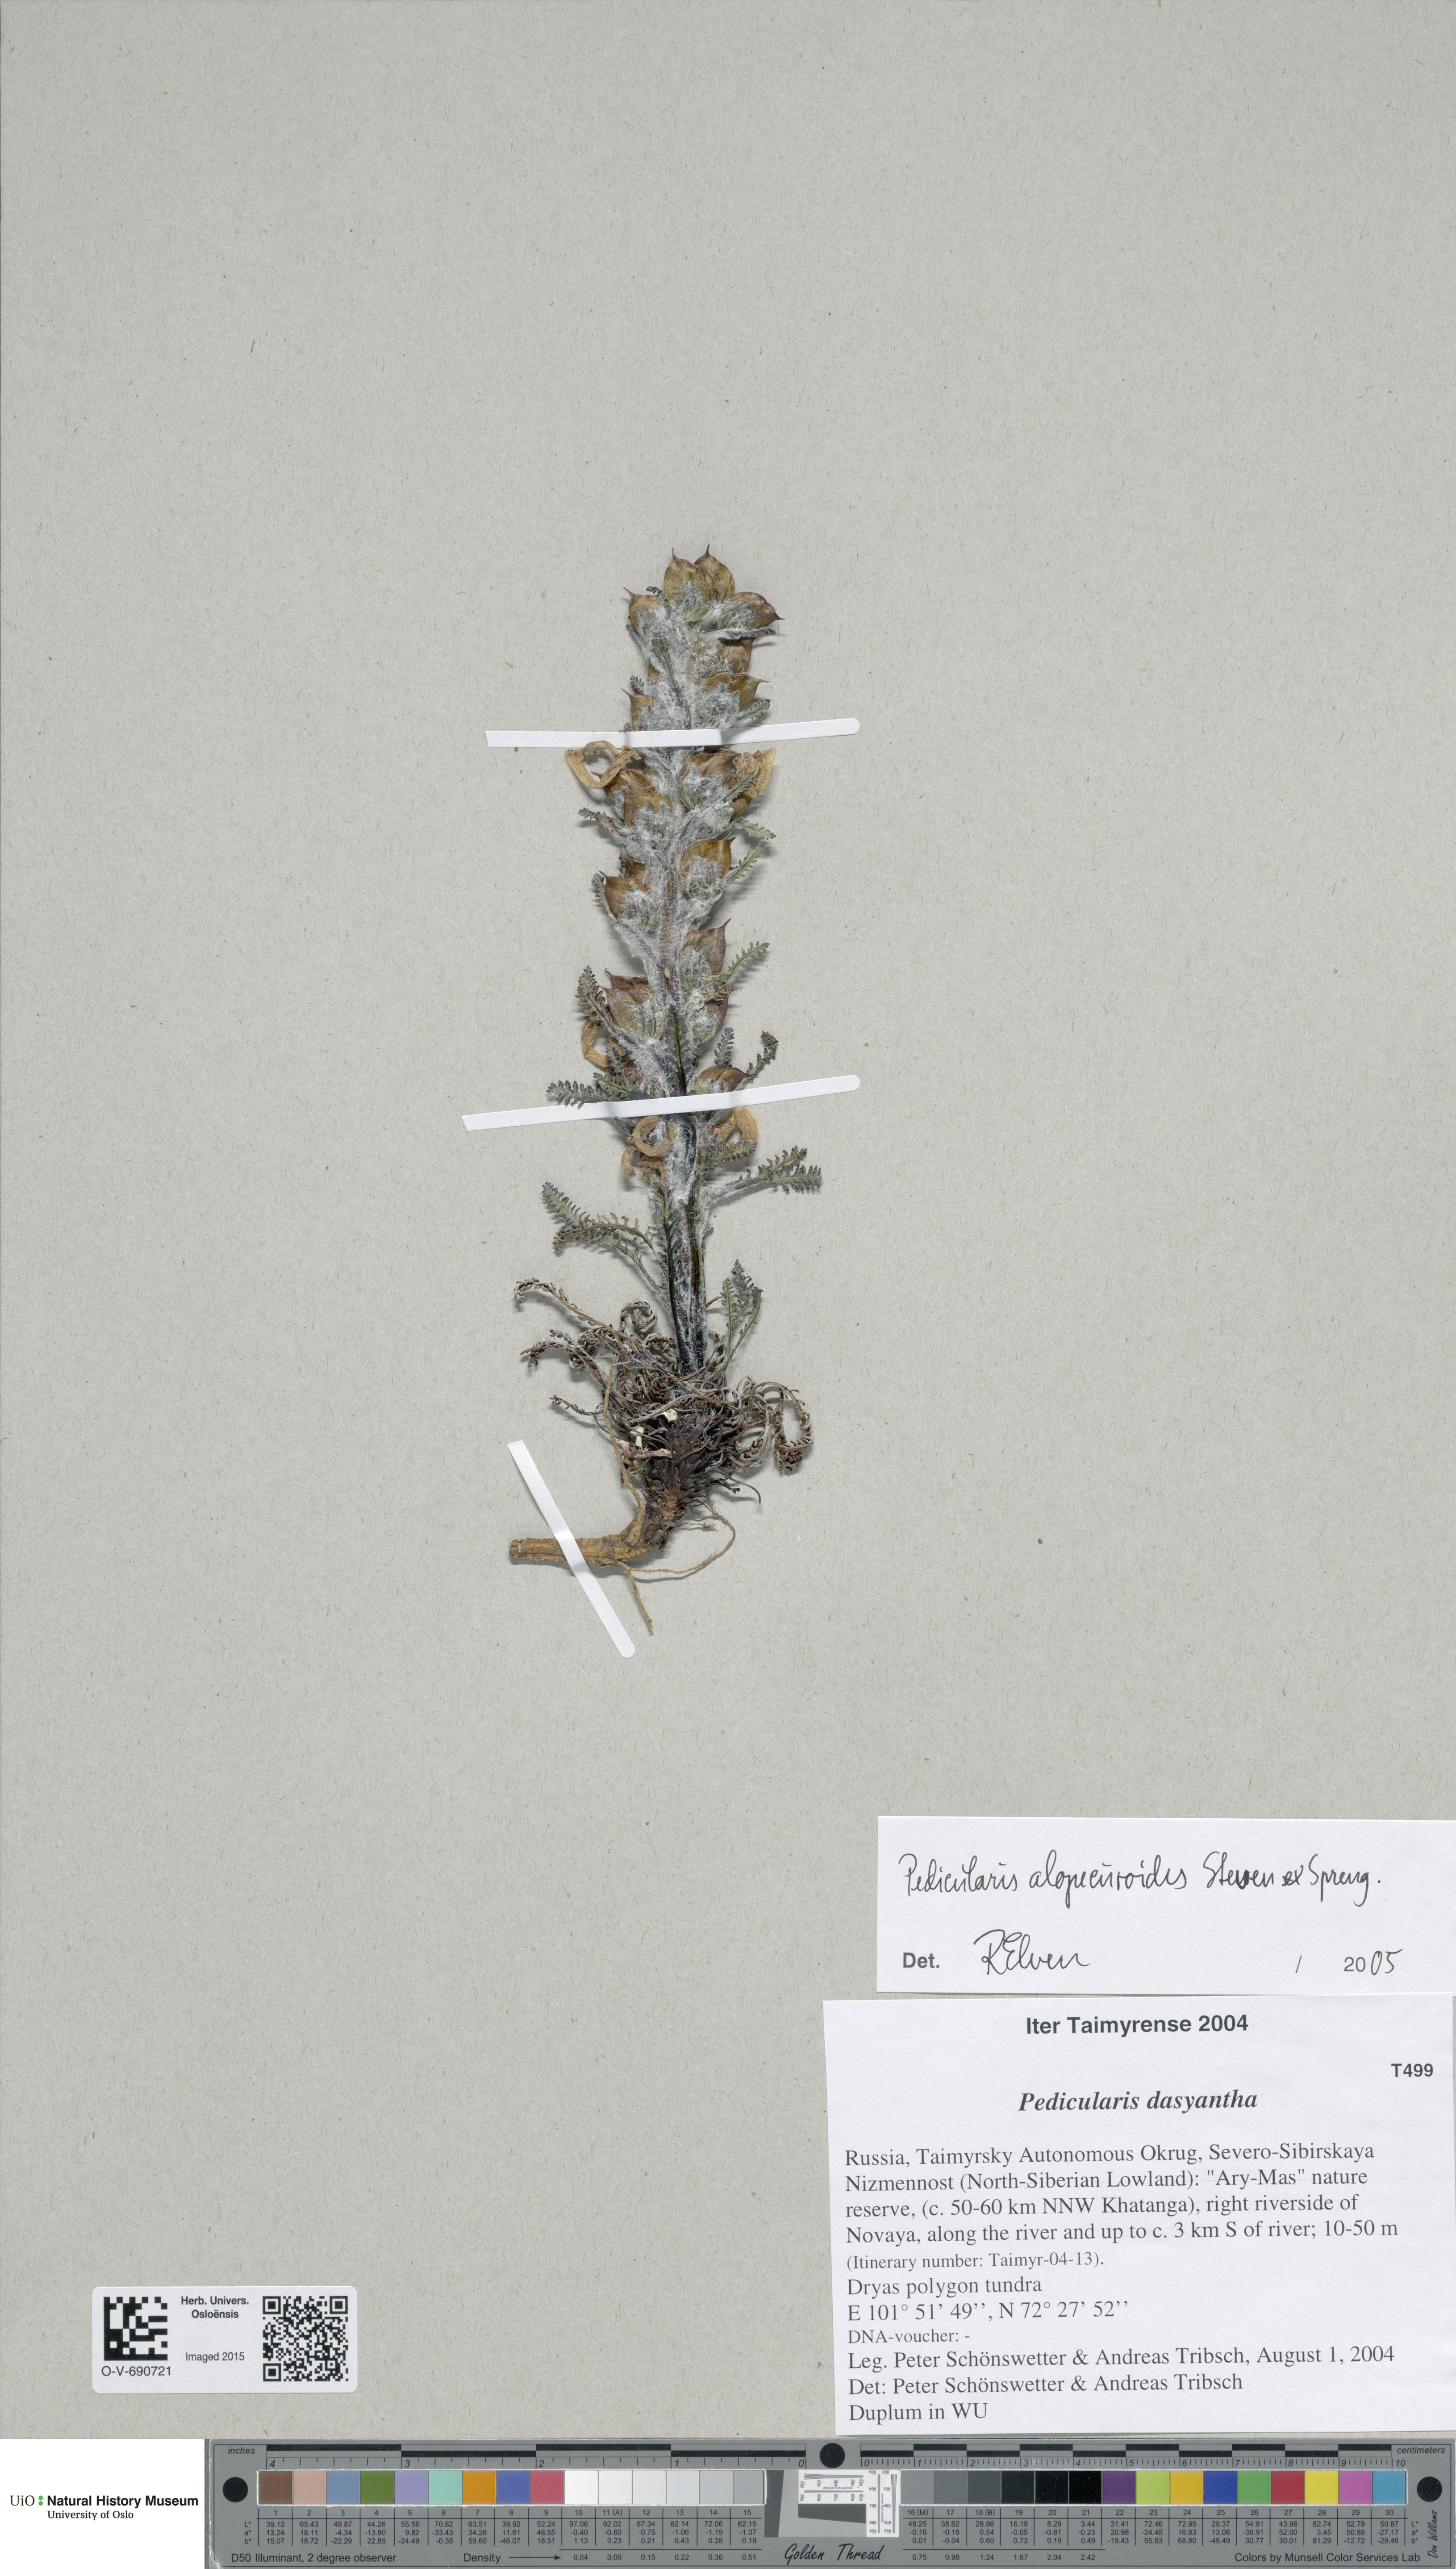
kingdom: Plantae
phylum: Tracheophyta
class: Magnoliopsida
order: Lamiales
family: Orobanchaceae
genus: Pedicularis
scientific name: Pedicularis alopecuroides
